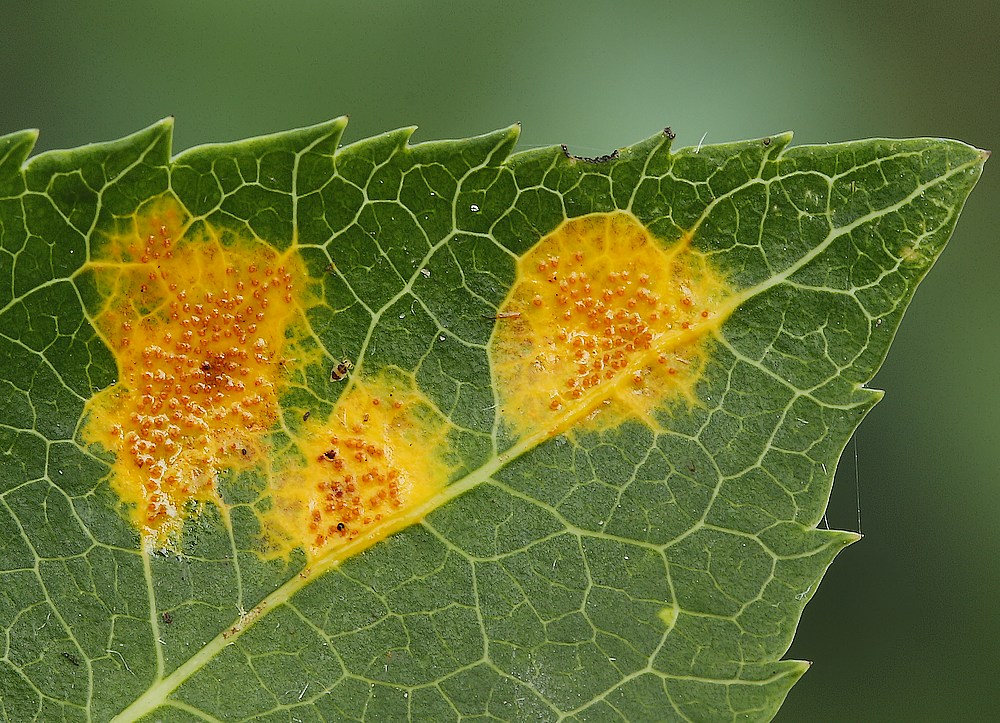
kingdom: Fungi
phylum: Basidiomycota
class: Pucciniomycetes
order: Pucciniales
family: Gymnosporangiaceae
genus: Gymnosporangium
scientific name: Gymnosporangium sabinae
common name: pæregitter-bævrerust
